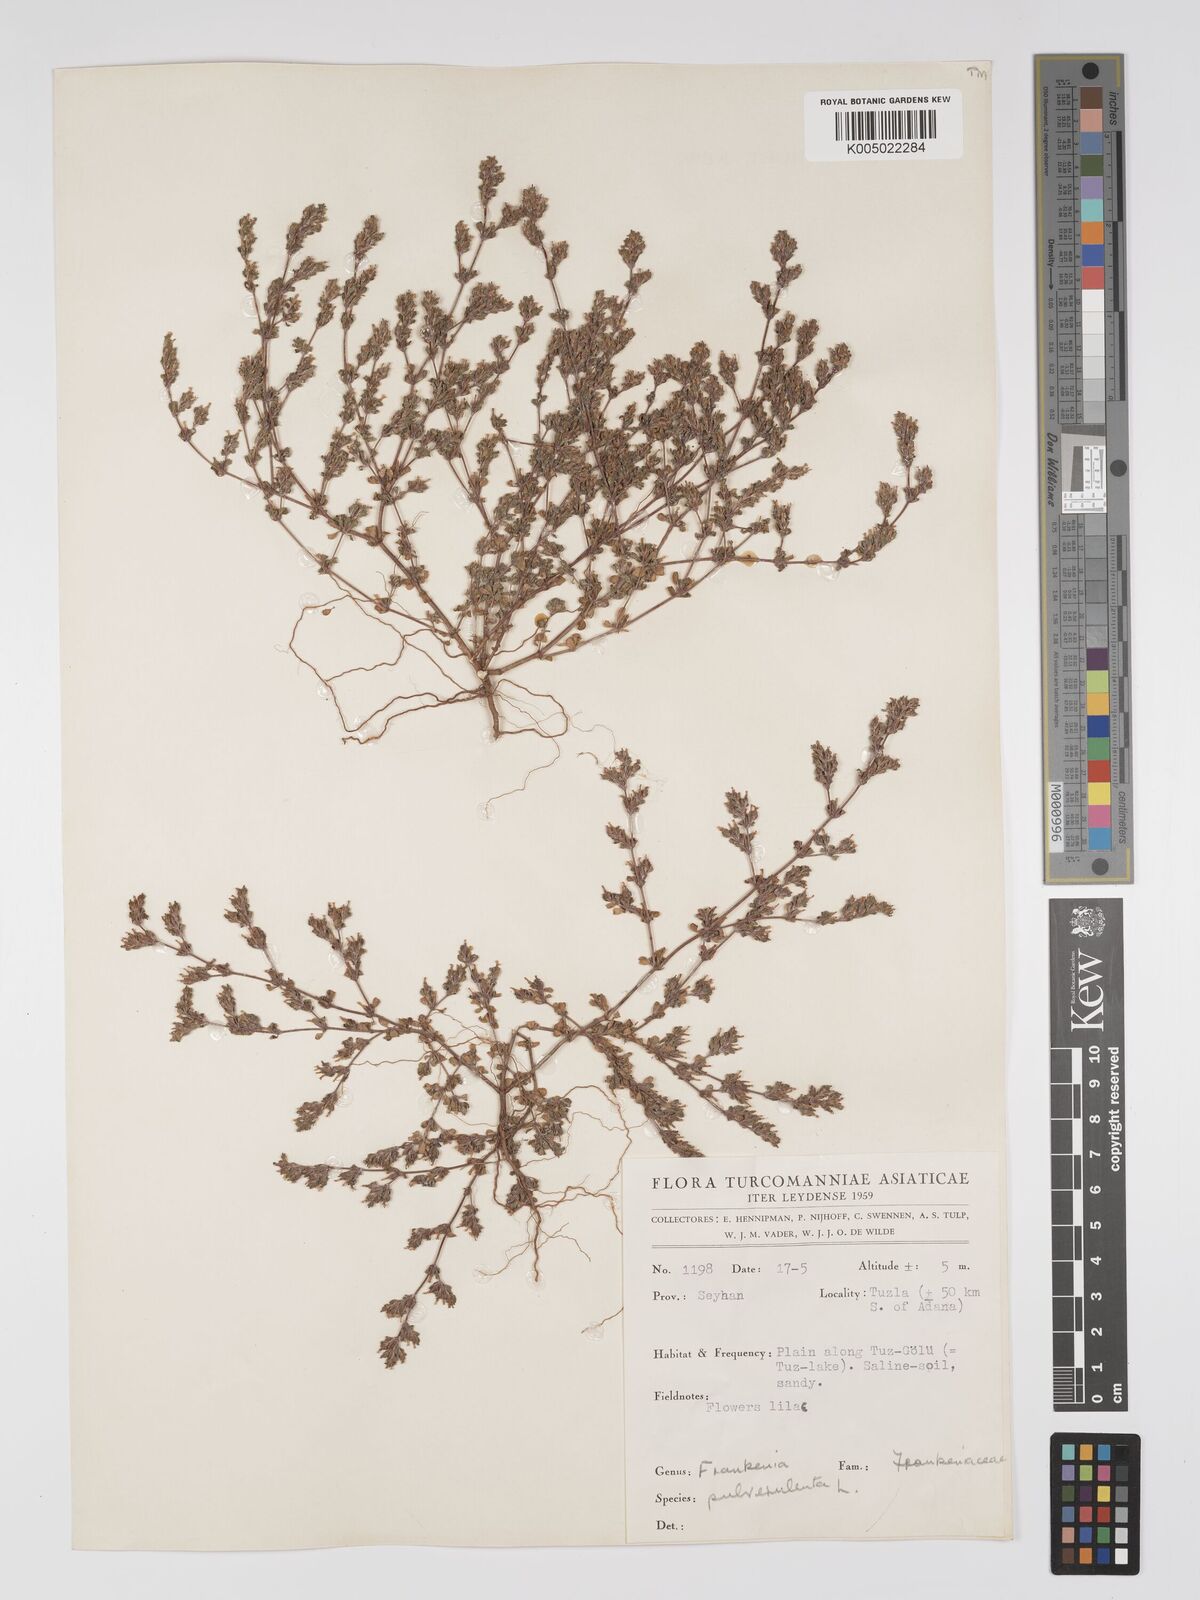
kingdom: Plantae
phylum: Tracheophyta
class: Magnoliopsida
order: Caryophyllales
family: Frankeniaceae
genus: Frankenia
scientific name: Frankenia pulverulenta
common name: European seaheath
